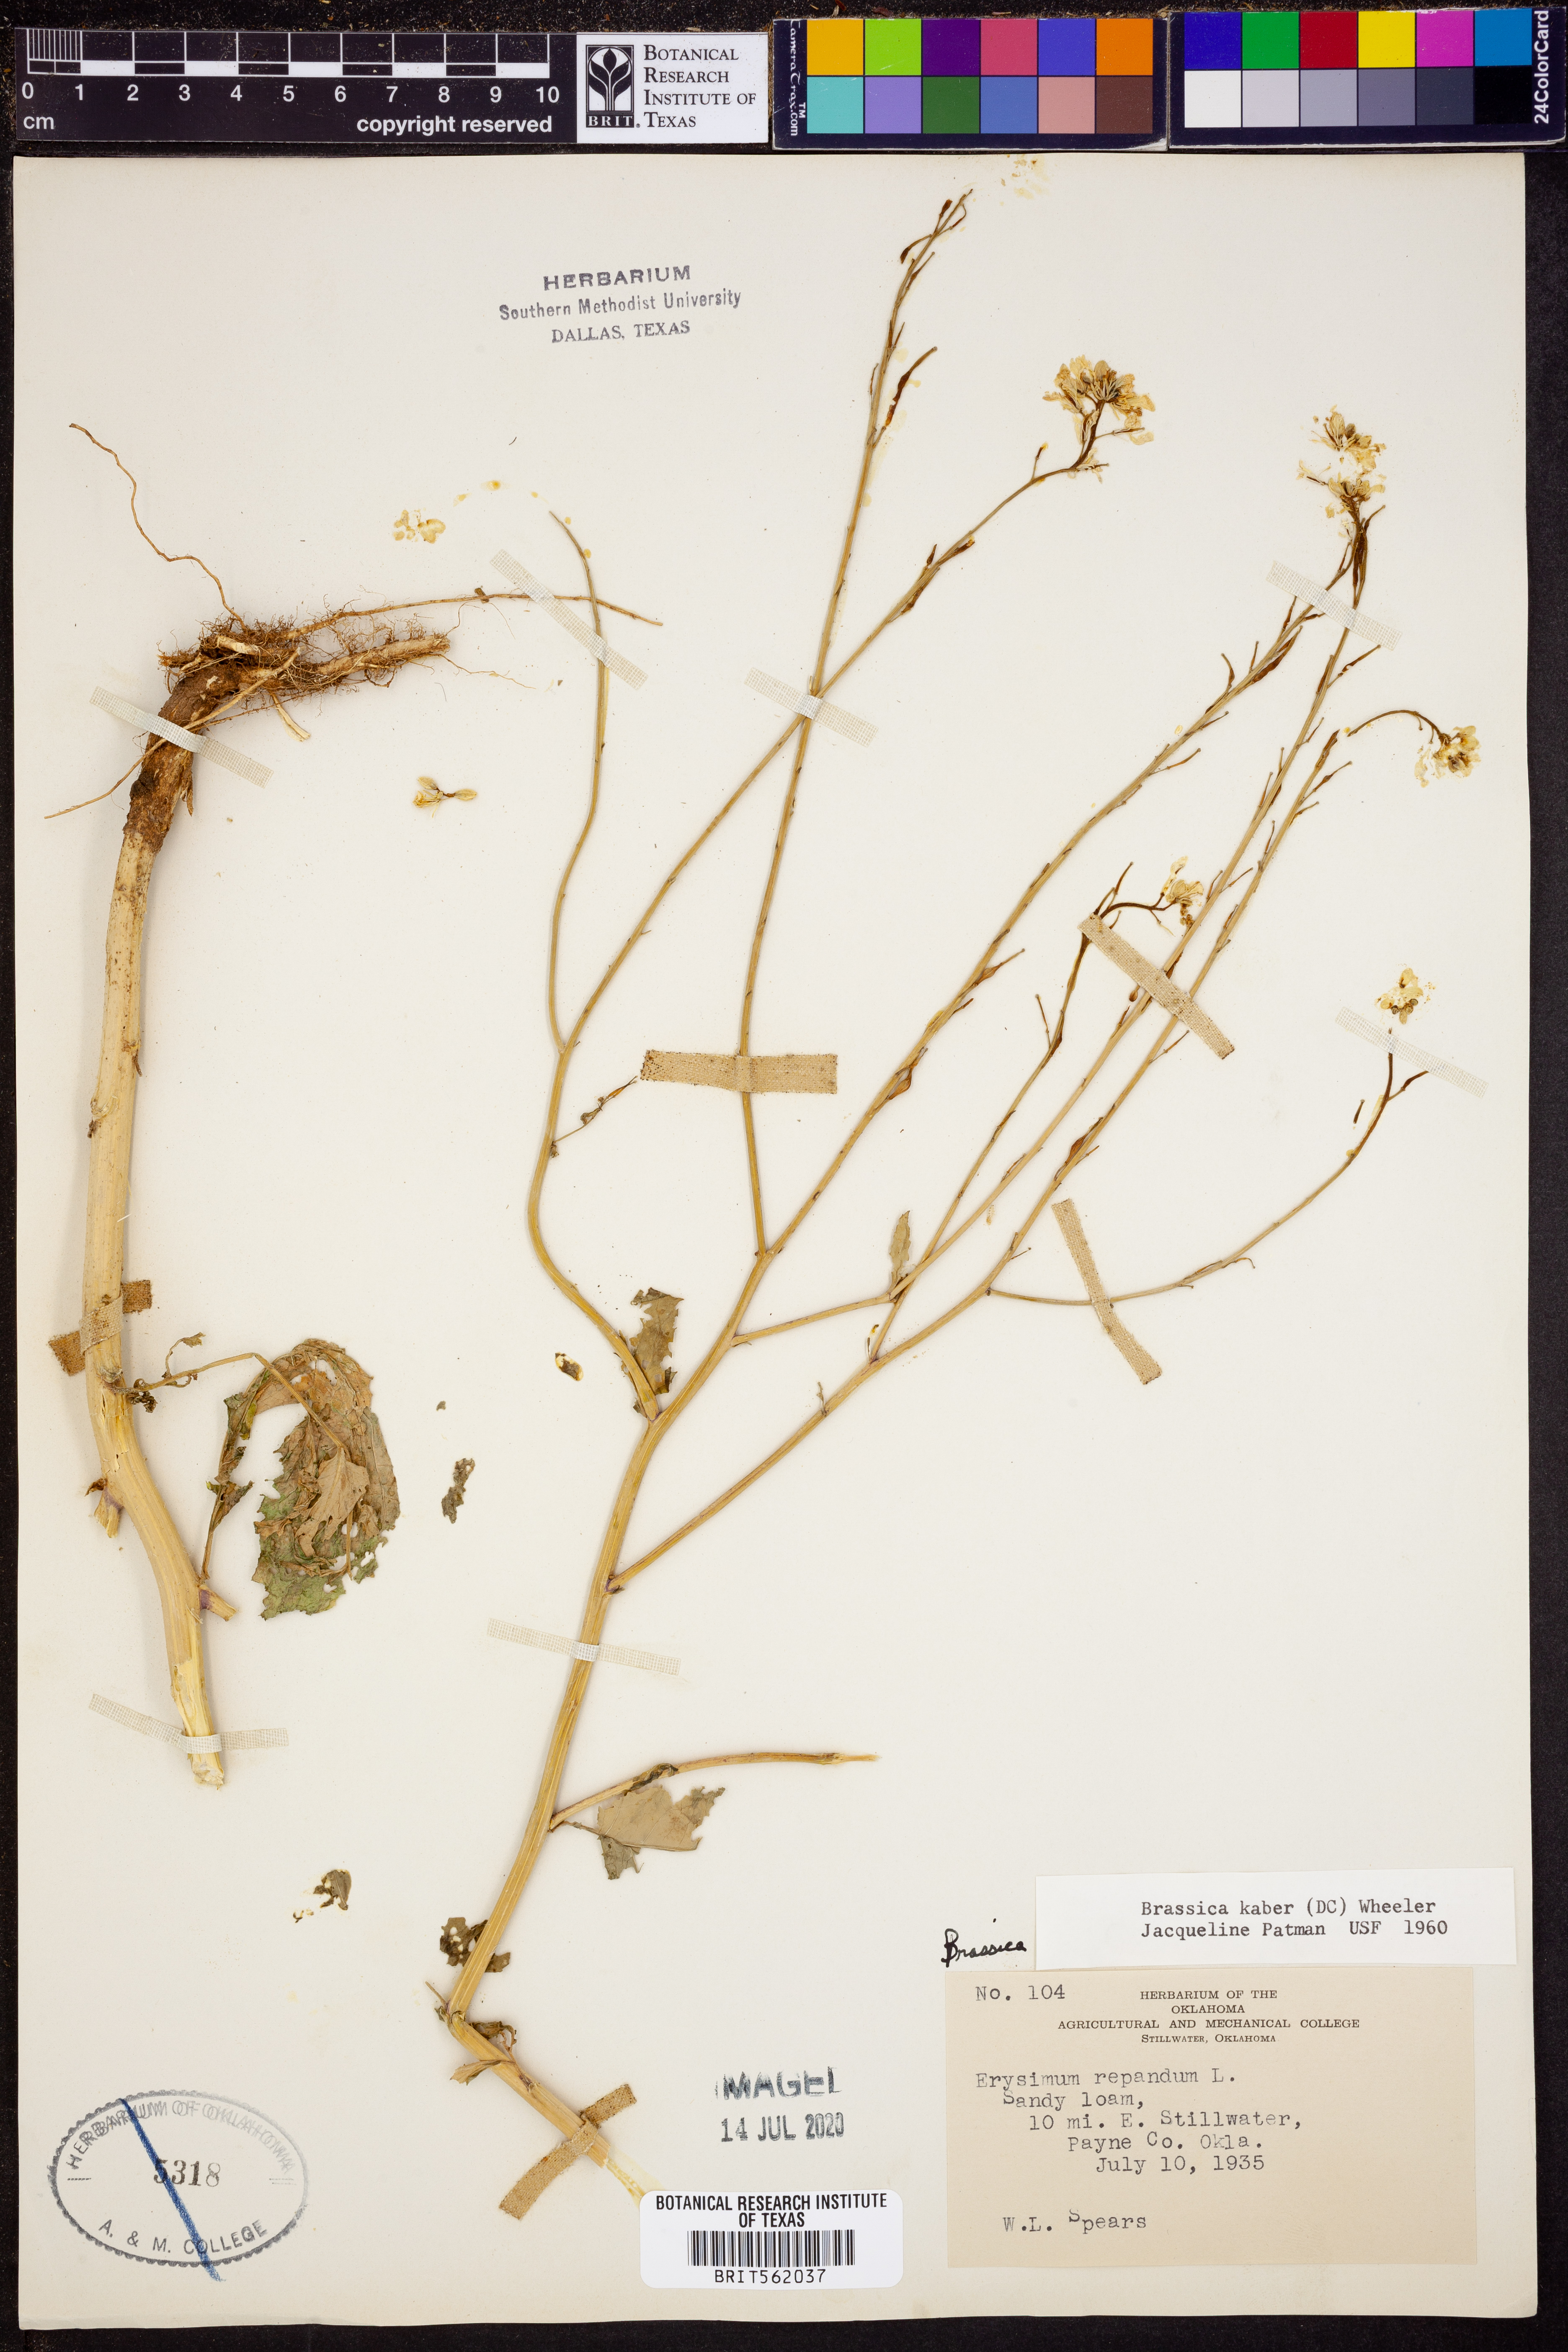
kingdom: Plantae
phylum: Tracheophyta
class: Magnoliopsida
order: Brassicales
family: Brassicaceae
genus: Sinapis
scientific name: Sinapis arvensis
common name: Charlock
